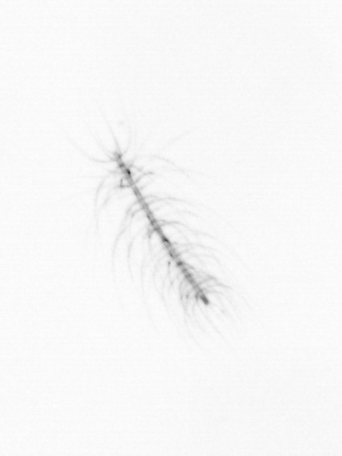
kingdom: Chromista
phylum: Ochrophyta
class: Bacillariophyceae
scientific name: Bacillariophyceae
